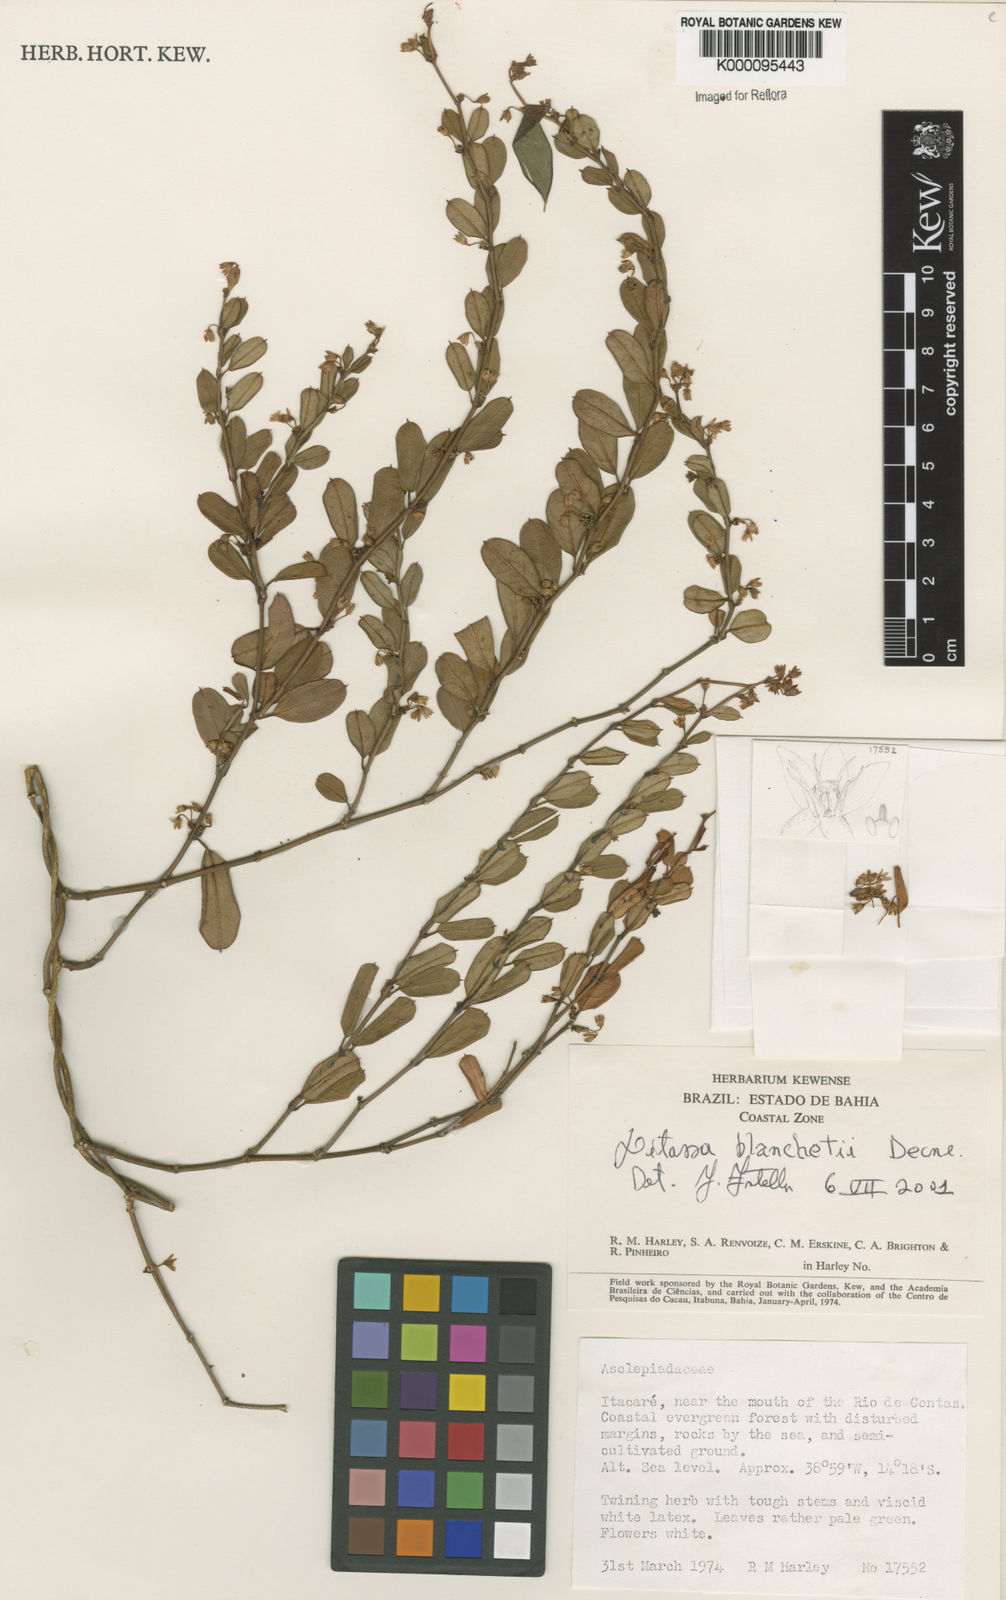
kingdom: Plantae
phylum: Tracheophyta
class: Magnoliopsida
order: Gentianales
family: Apocynaceae
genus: Ditassa
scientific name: Ditassa blanchetii
